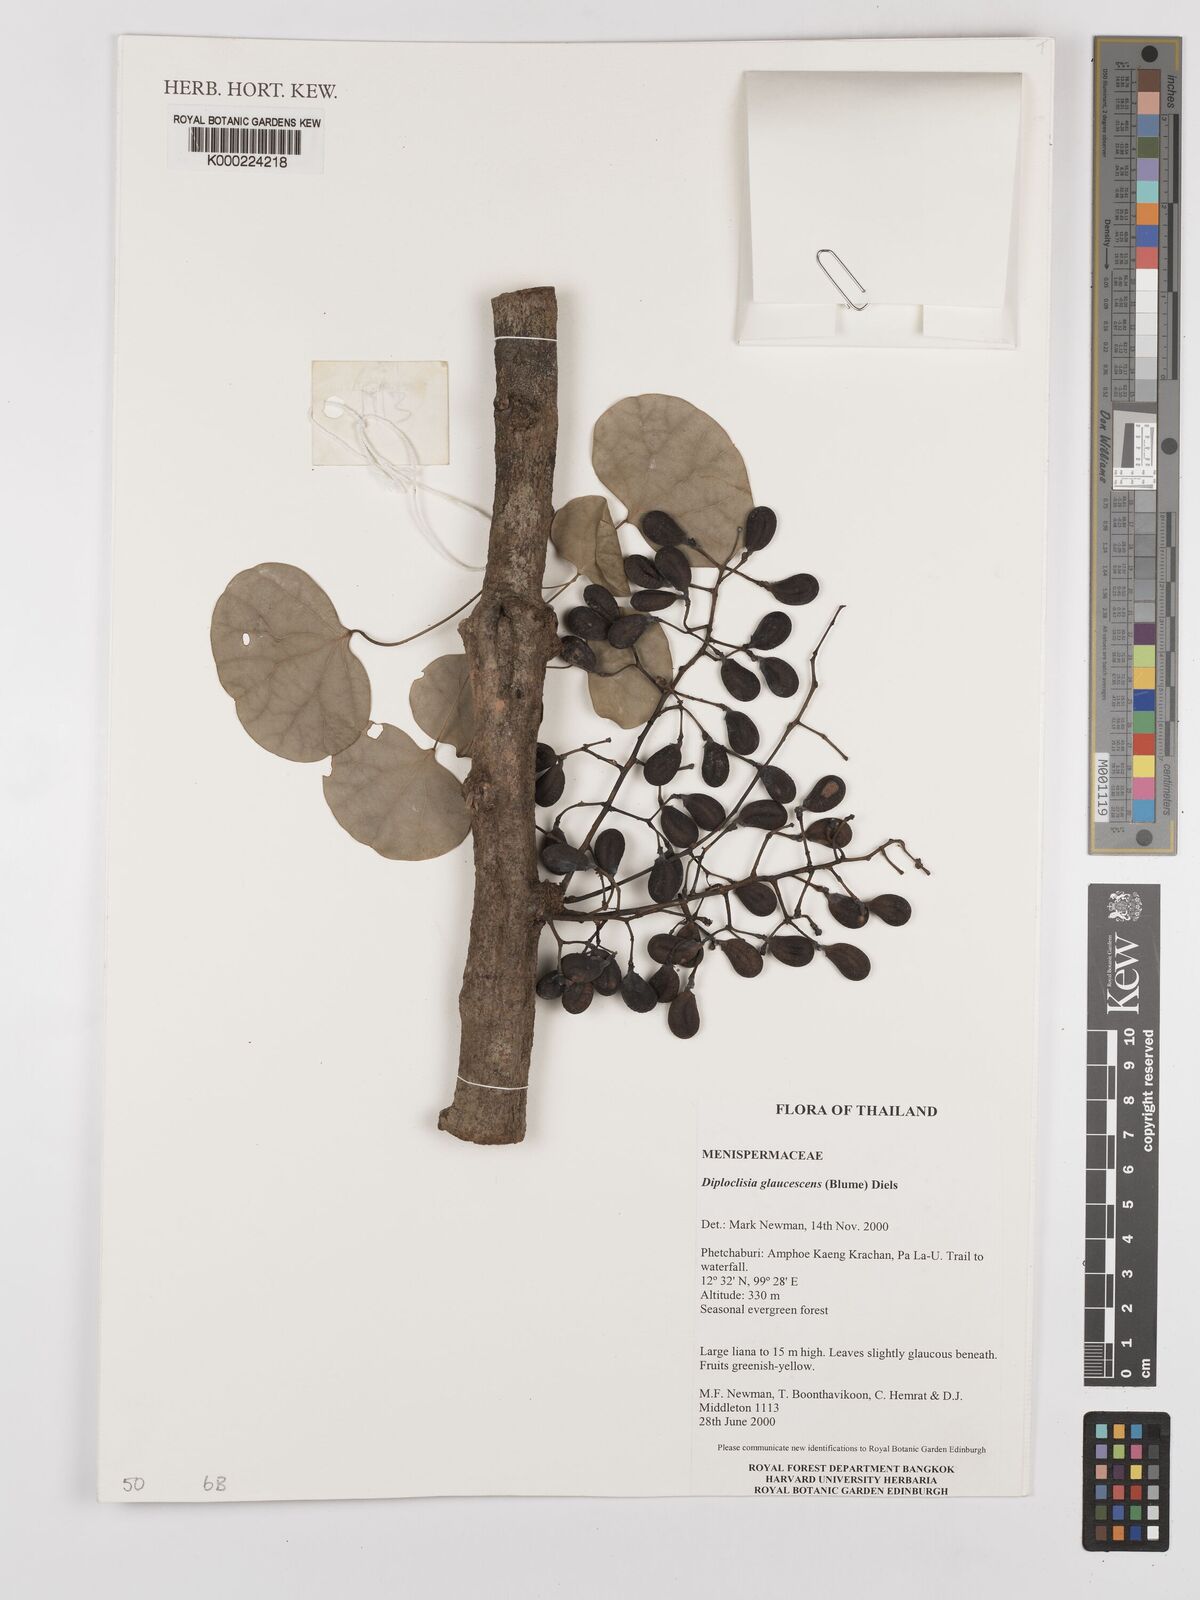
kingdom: Plantae
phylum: Tracheophyta
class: Magnoliopsida
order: Ranunculales
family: Menispermaceae
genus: Diploclisia
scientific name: Diploclisia glaucescens
